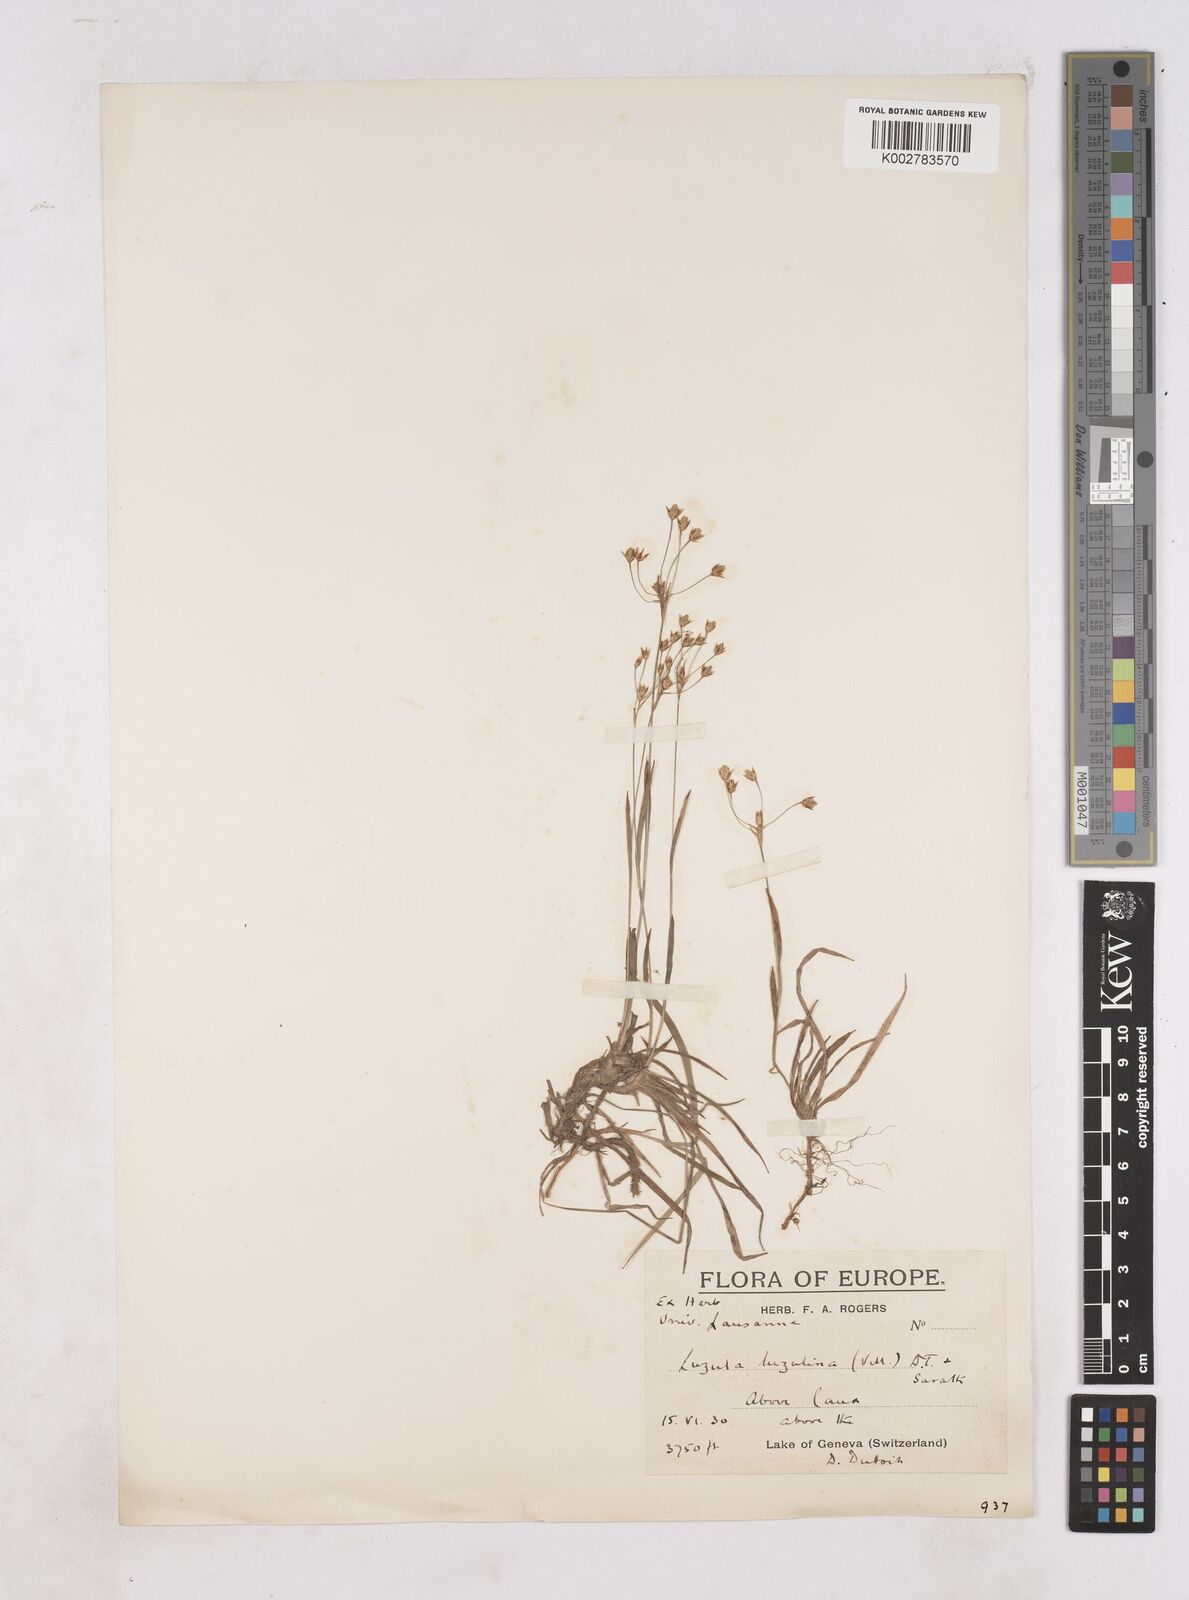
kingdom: Plantae
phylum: Tracheophyta
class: Liliopsida
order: Poales
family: Juncaceae
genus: Luzula
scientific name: Luzula
